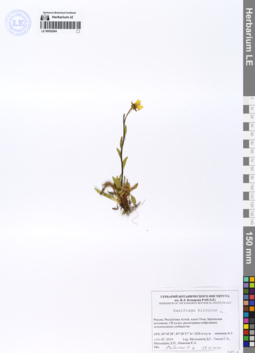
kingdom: Plantae
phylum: Tracheophyta
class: Magnoliopsida
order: Saxifragales
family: Saxifragaceae
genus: Saxifraga
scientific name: Saxifraga hirculus
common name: Yellow marsh saxifrage
